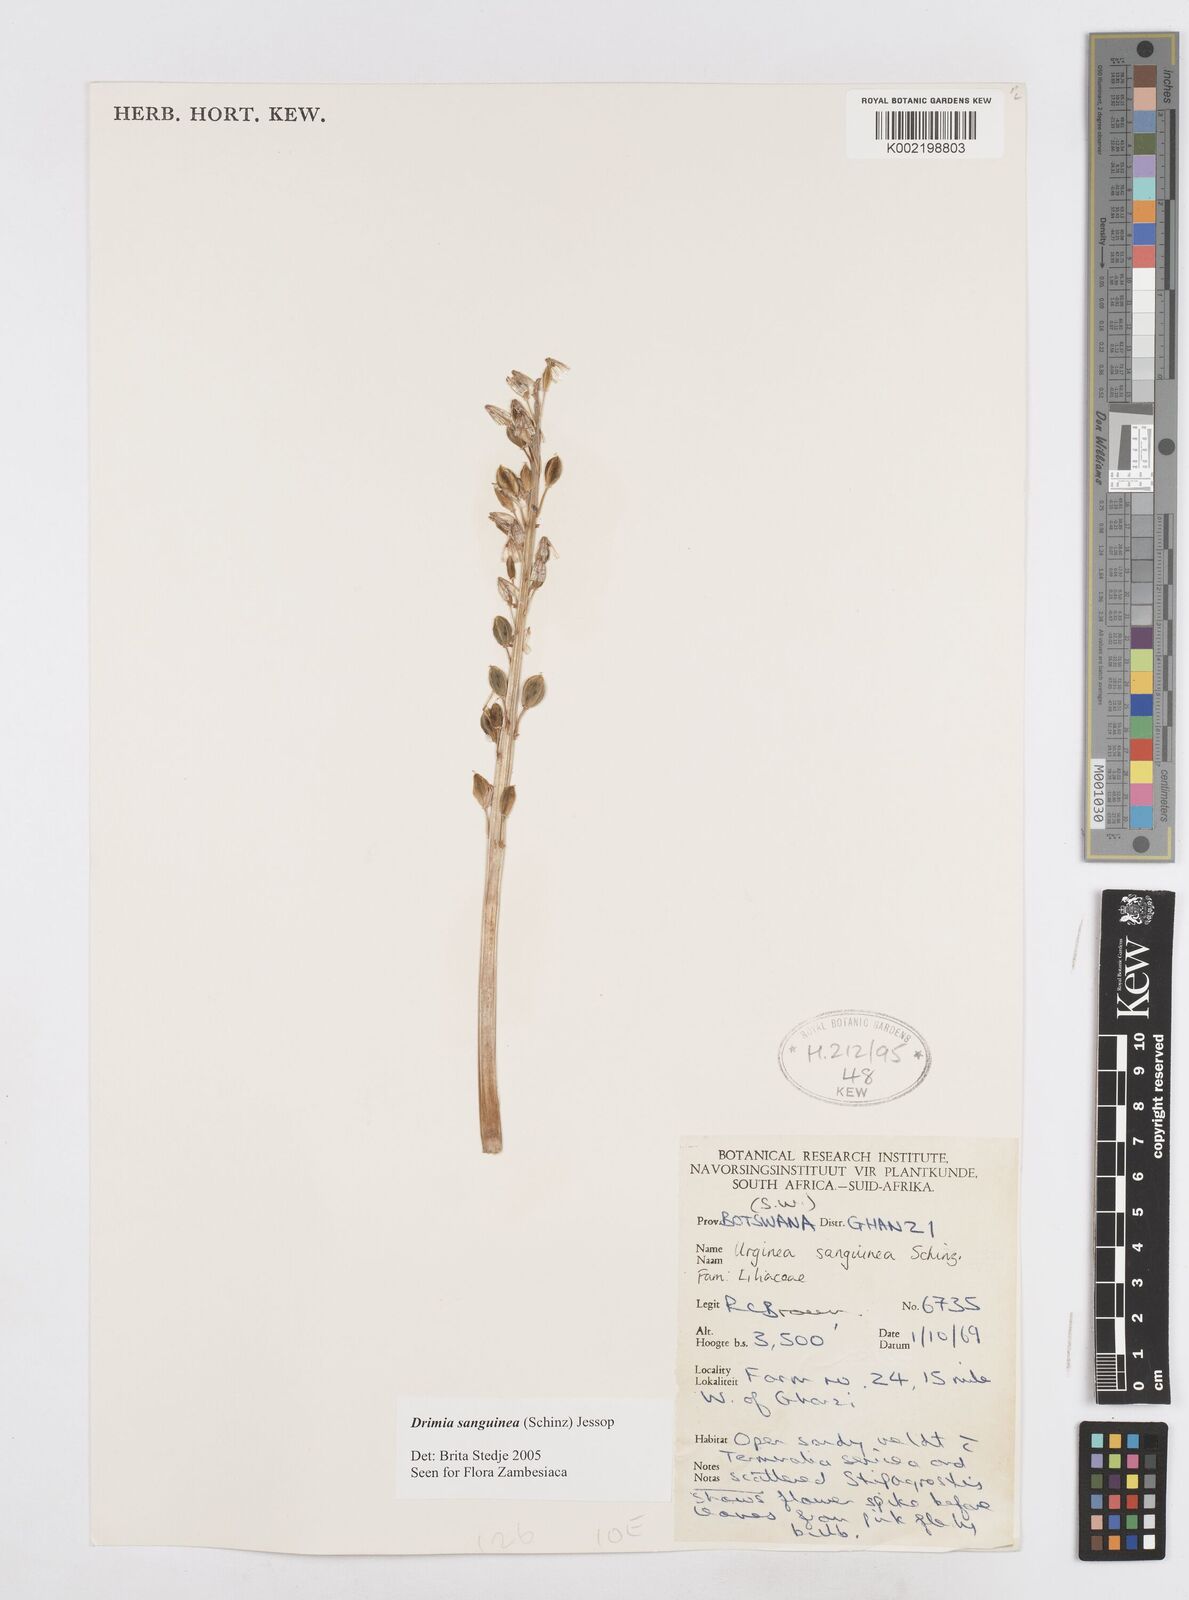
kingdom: Plantae
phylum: Tracheophyta
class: Liliopsida
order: Asparagales
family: Asparagaceae
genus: Drimia
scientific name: Drimia sanguinea
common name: Transvaal slangkop
